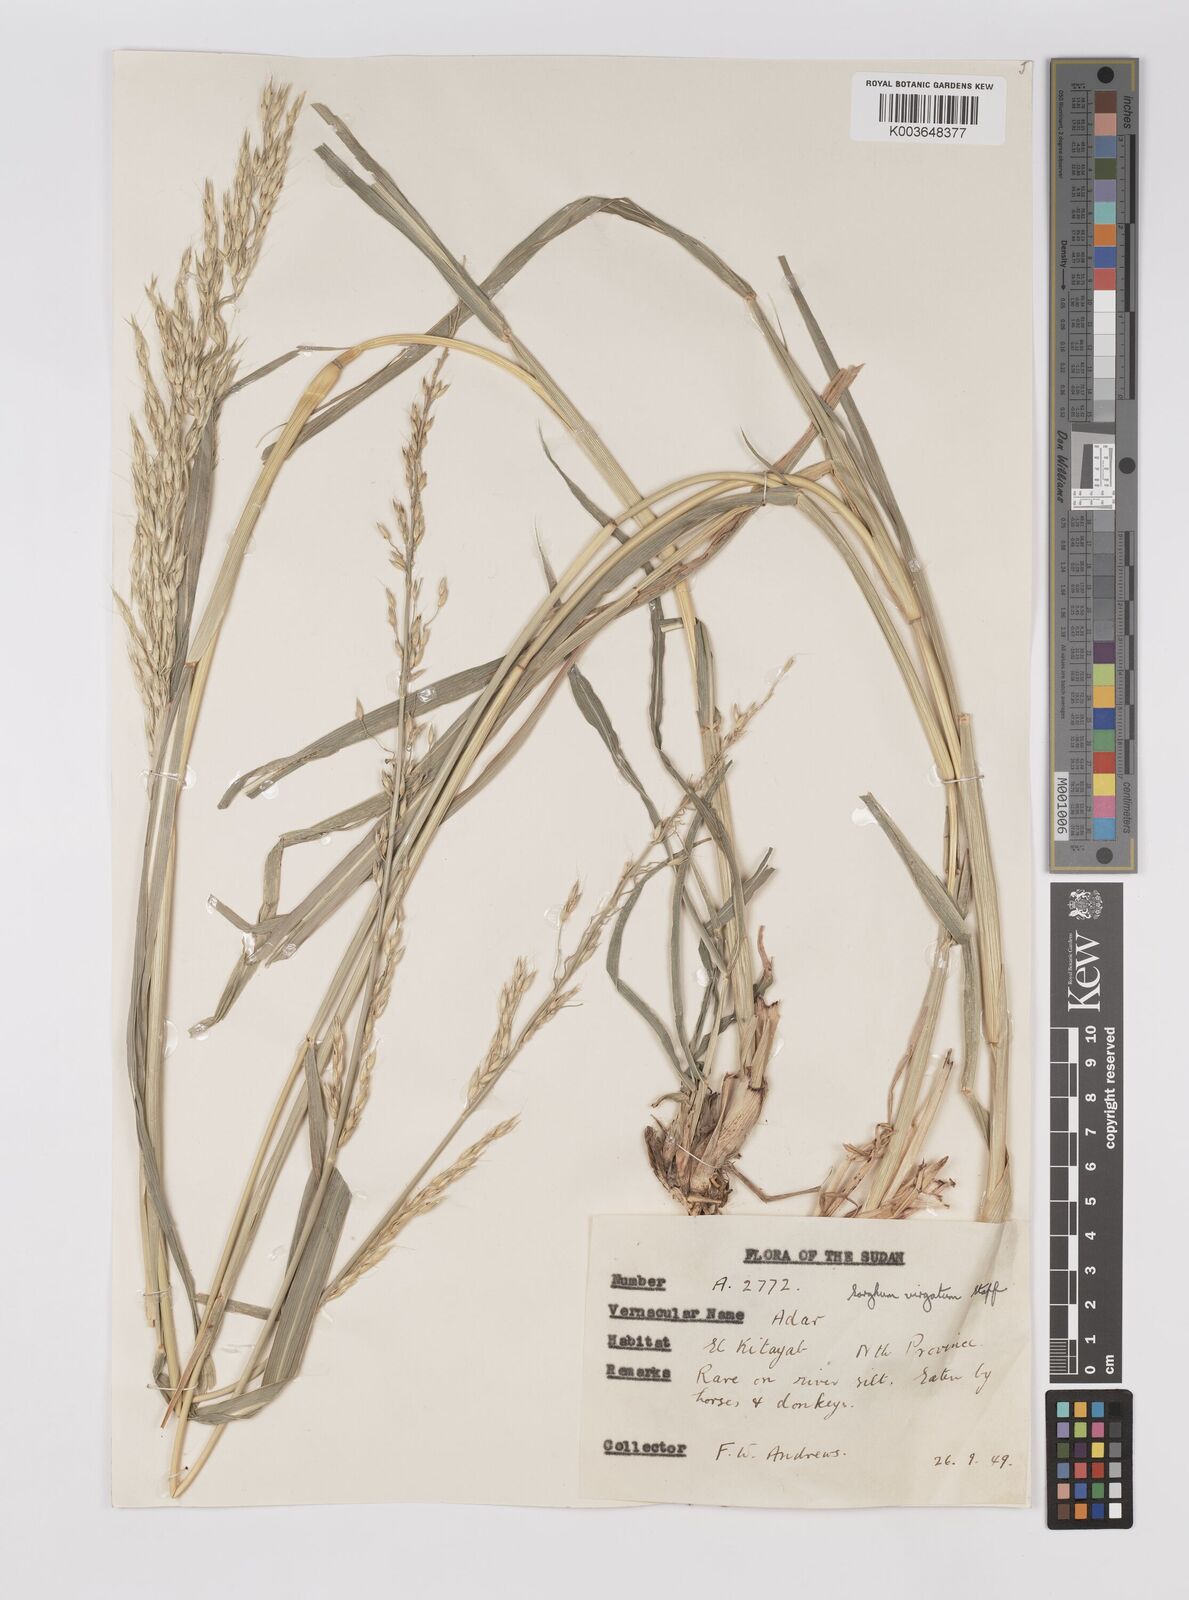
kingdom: Plantae
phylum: Tracheophyta
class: Liliopsida
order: Poales
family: Poaceae
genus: Sorghum
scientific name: Sorghum virgatum
